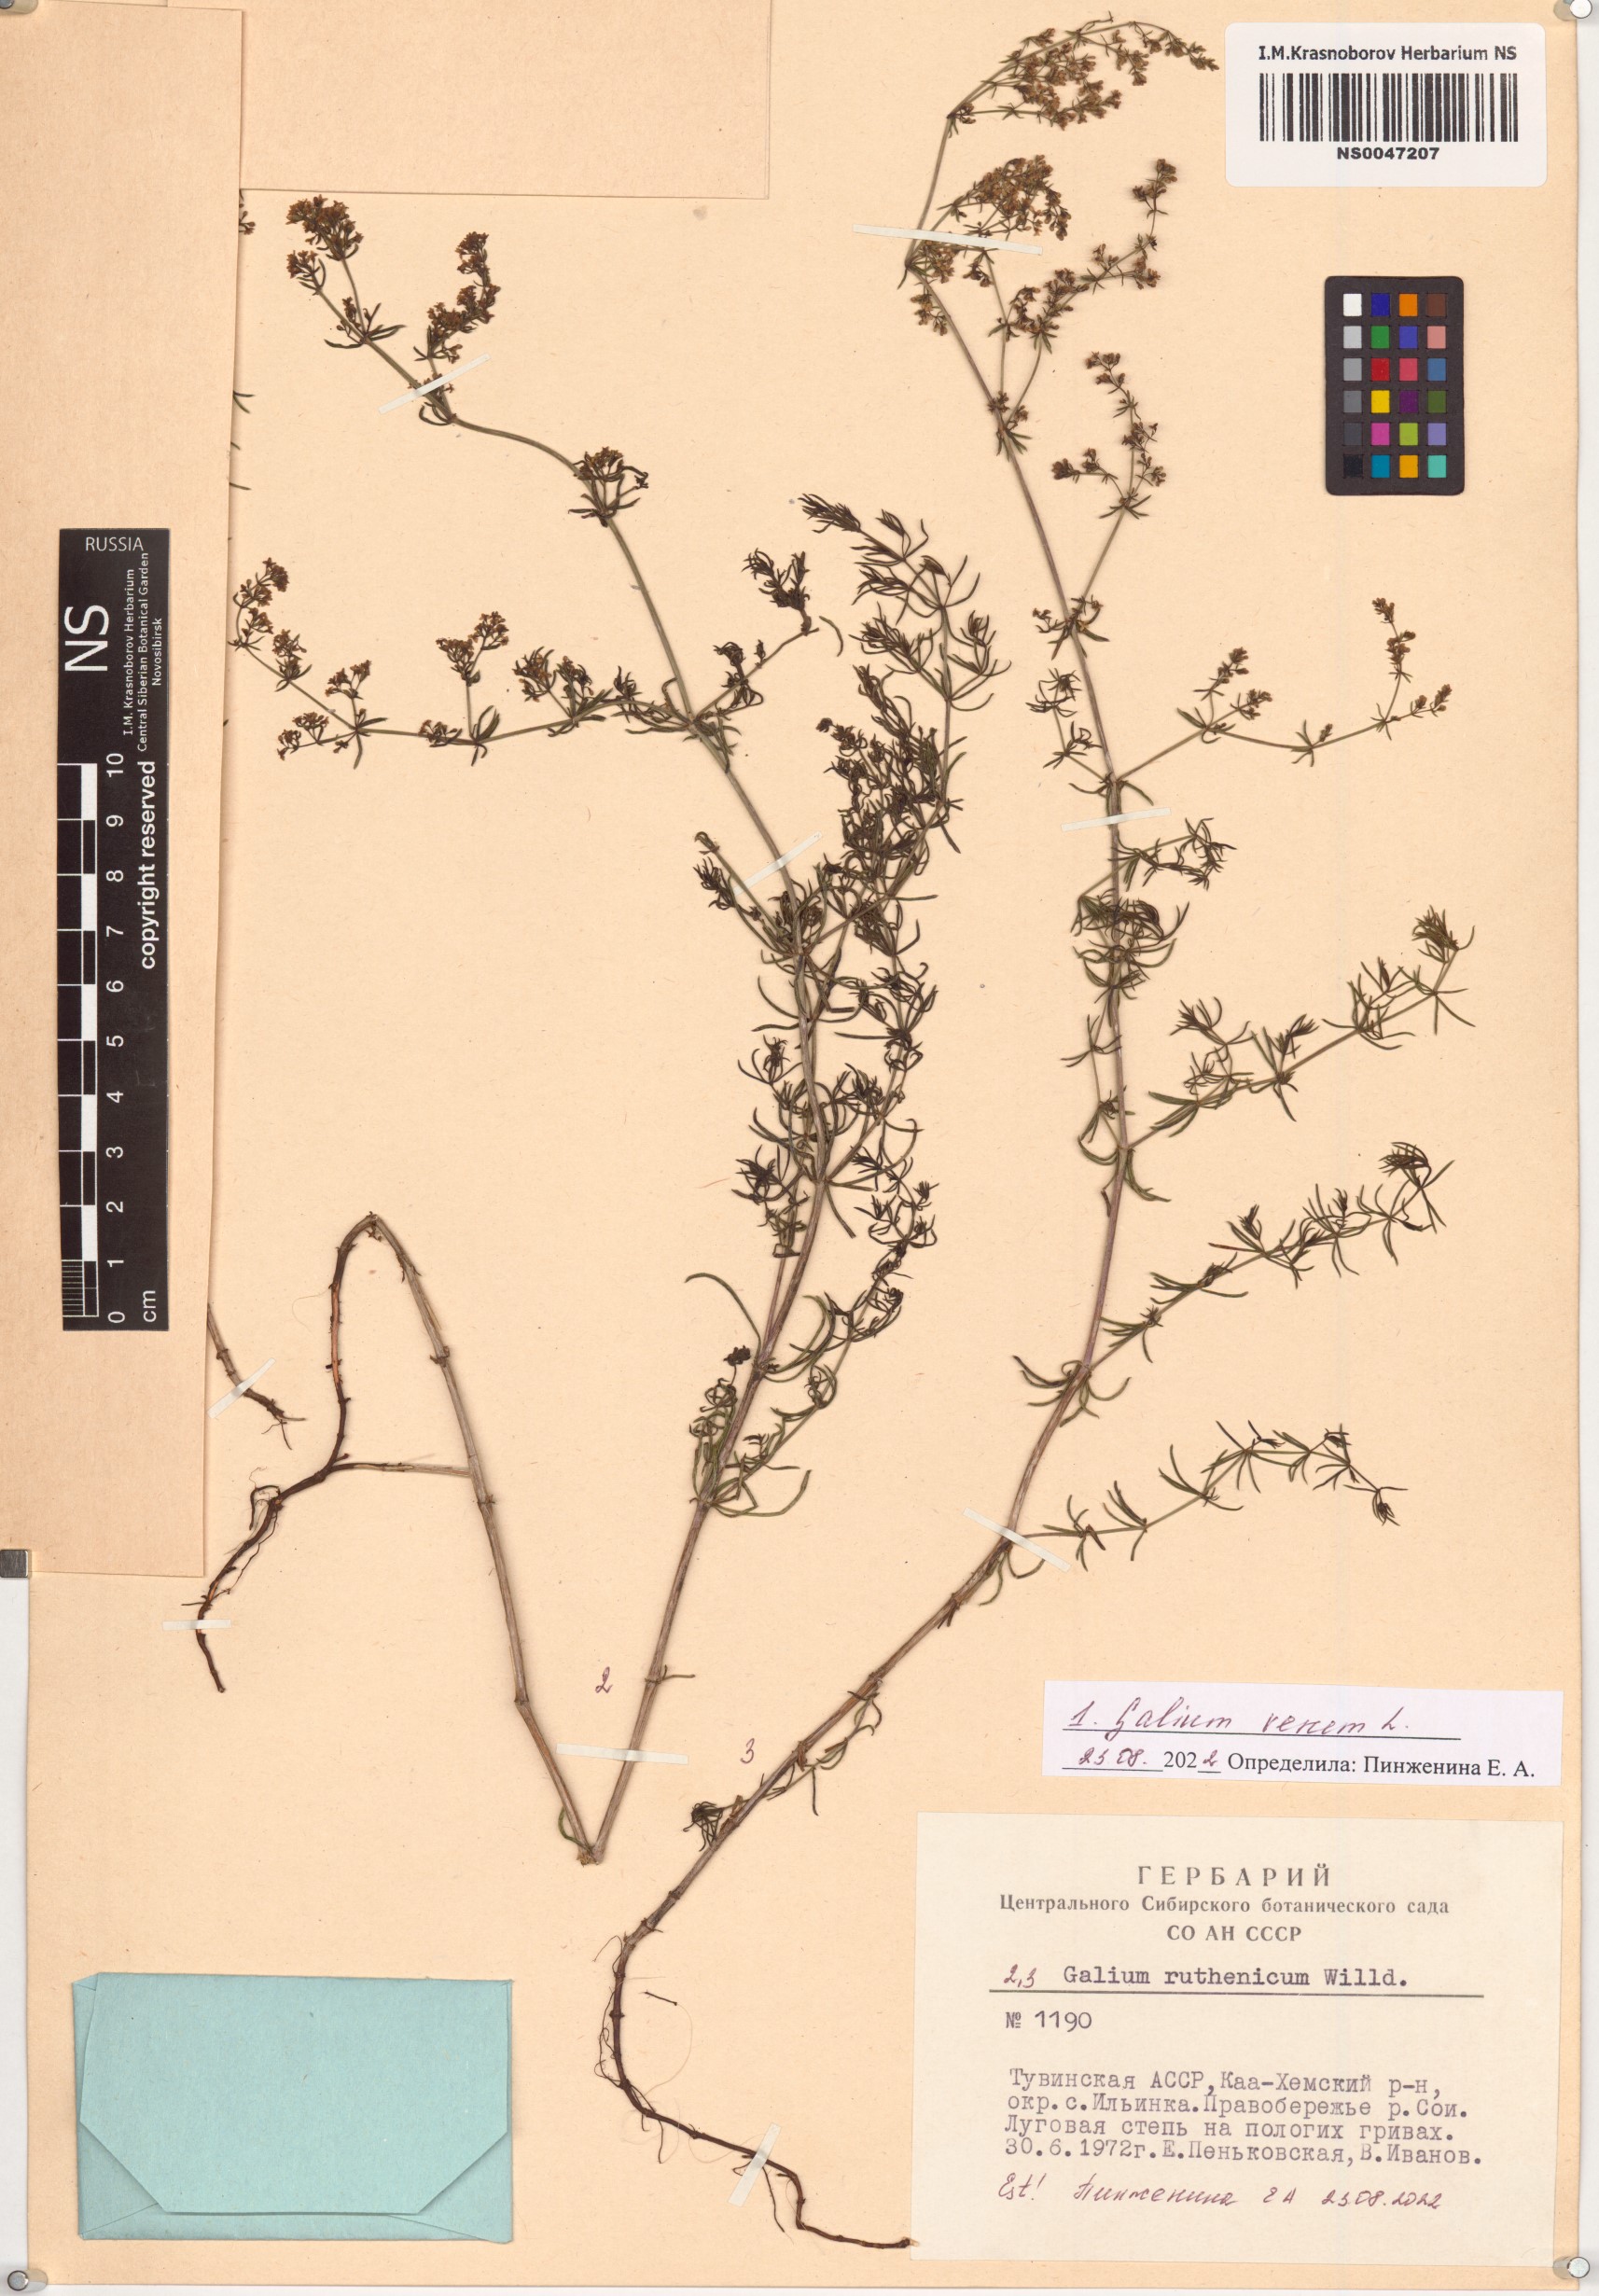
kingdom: Plantae
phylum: Tracheophyta
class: Magnoliopsida
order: Gentianales
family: Rubiaceae
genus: Galium
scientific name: Galium verum
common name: Lady's bedstraw
